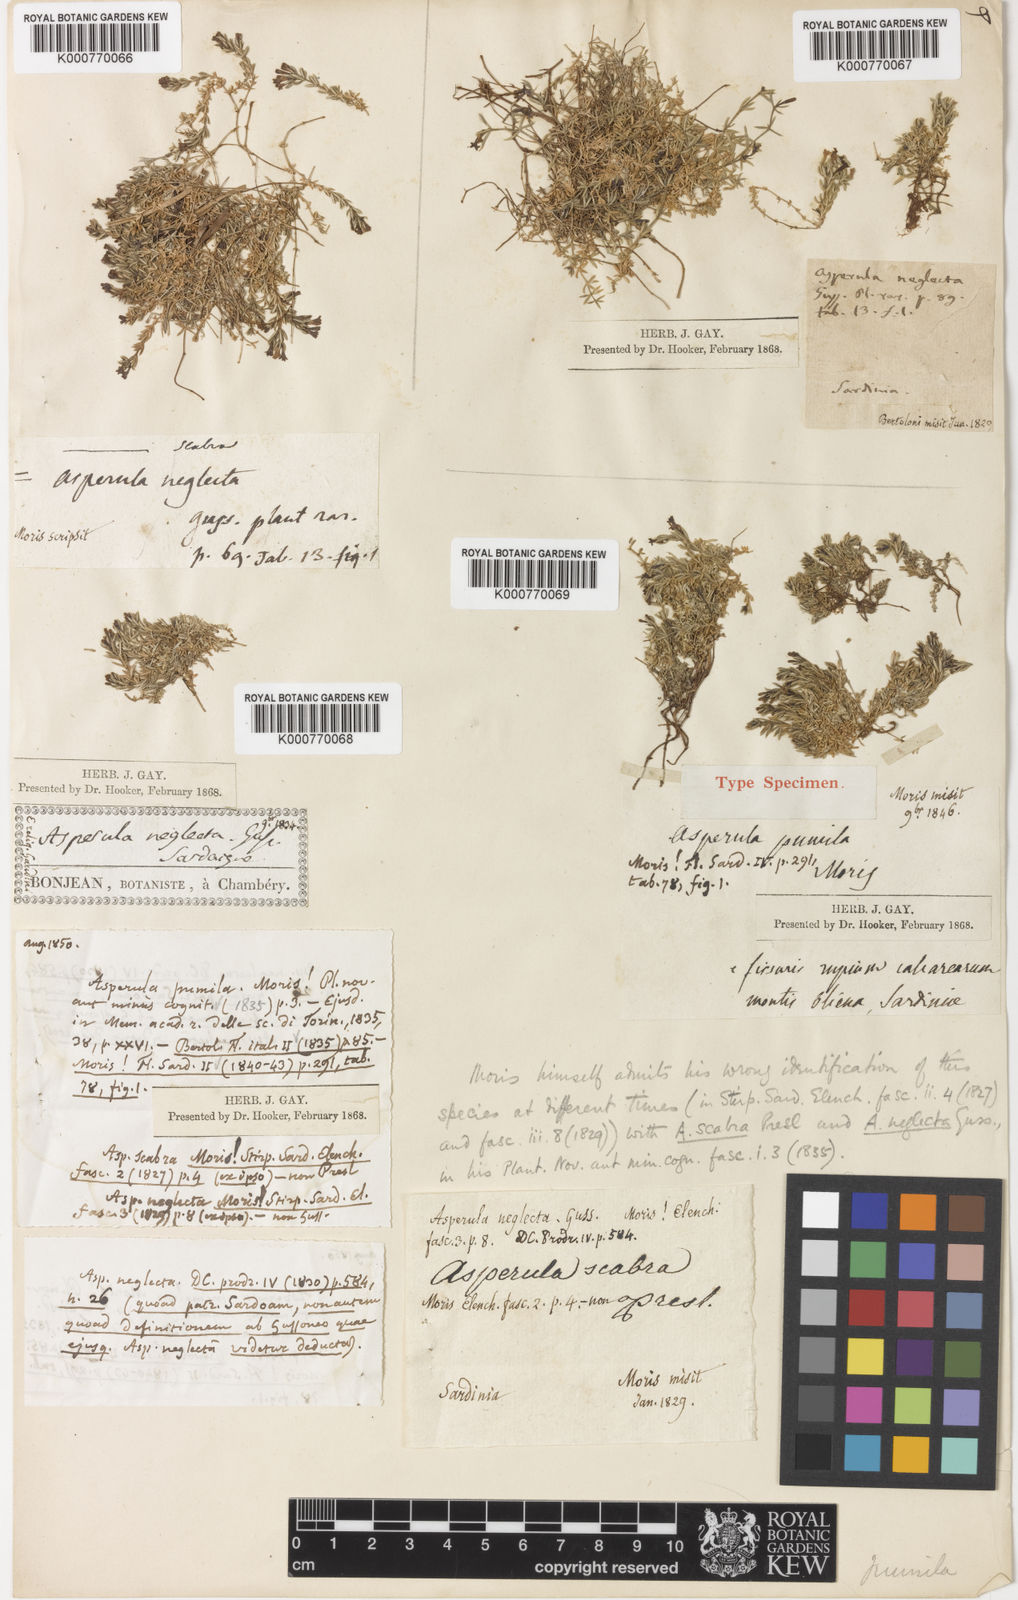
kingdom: Plantae
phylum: Tracheophyta
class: Magnoliopsida
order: Gentianales
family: Rubiaceae
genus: Cynanchica
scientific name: Cynanchica pumila
